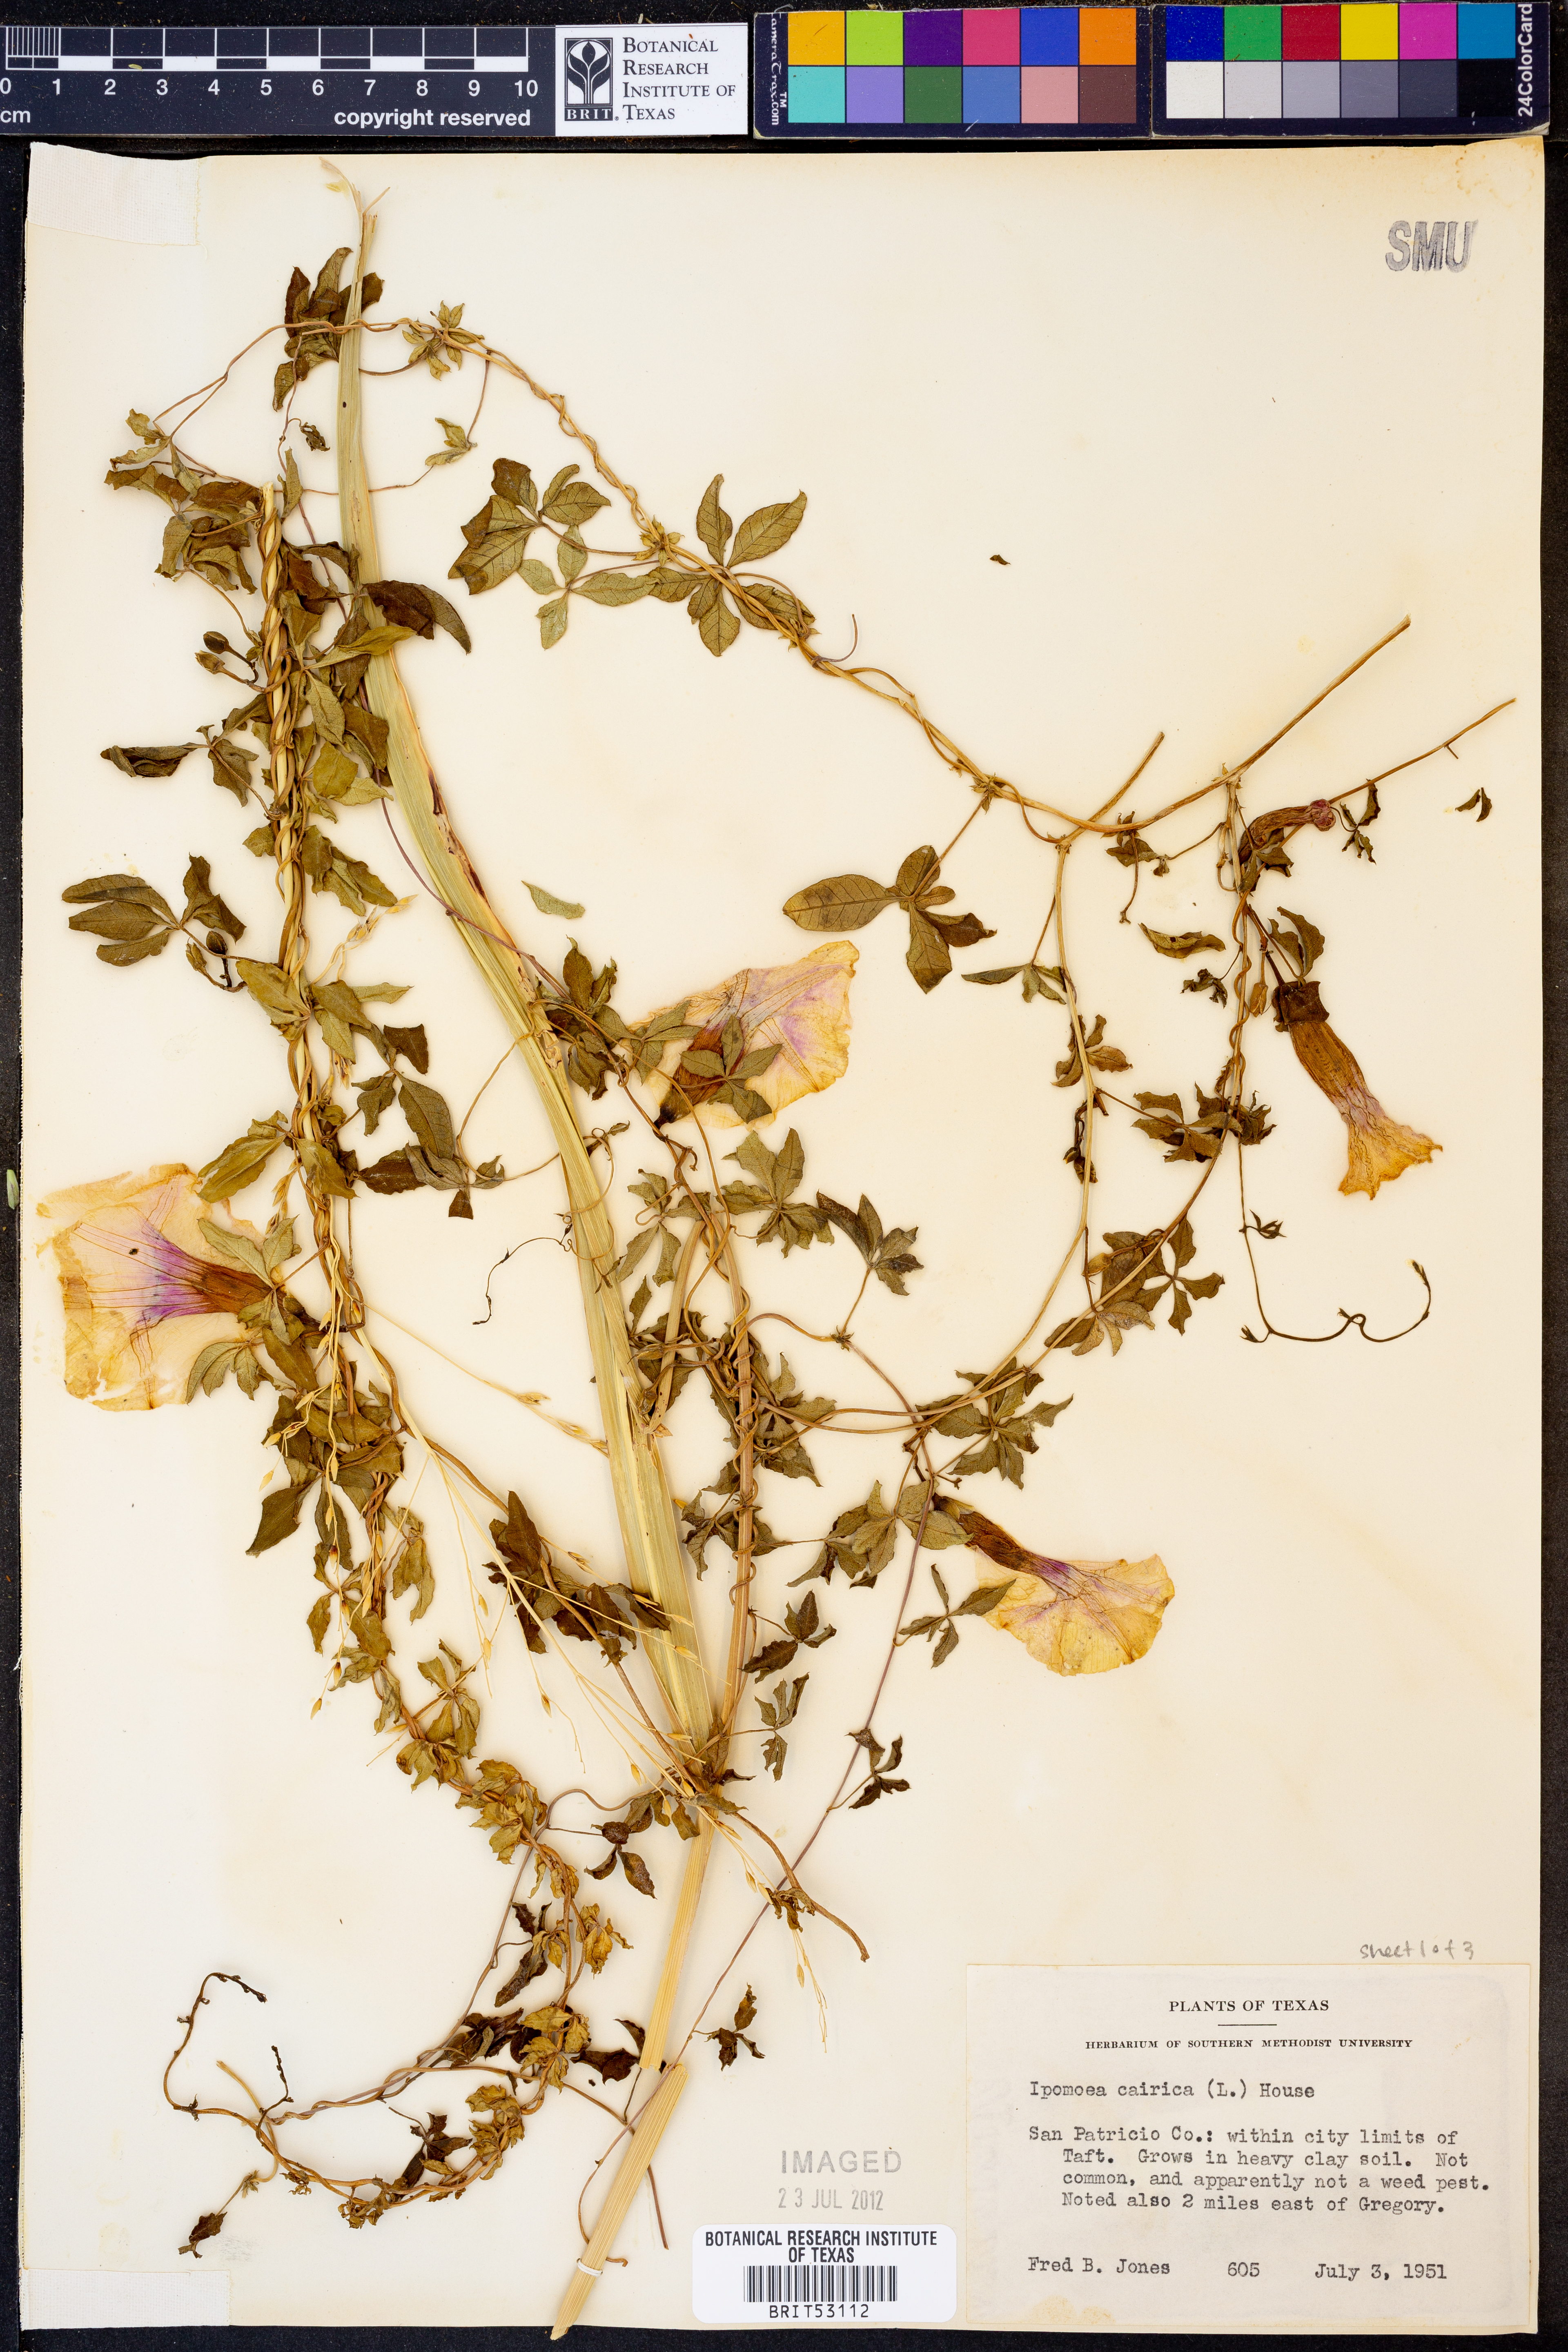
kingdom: Plantae
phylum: Tracheophyta
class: Magnoliopsida
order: Solanales
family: Convolvulaceae
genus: Ipomoea
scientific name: Ipomoea cairica
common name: Mile a minute vine
